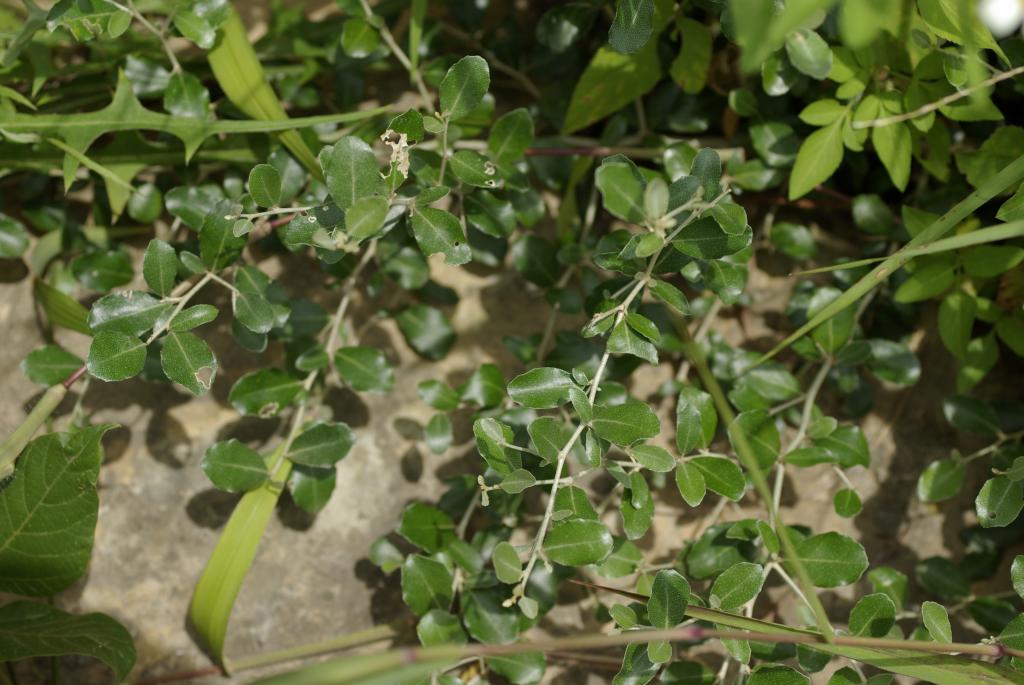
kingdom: Plantae
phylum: Tracheophyta
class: Magnoliopsida
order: Rosales
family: Elaeagnaceae
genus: Elaeagnus
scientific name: Elaeagnus oldhamii
